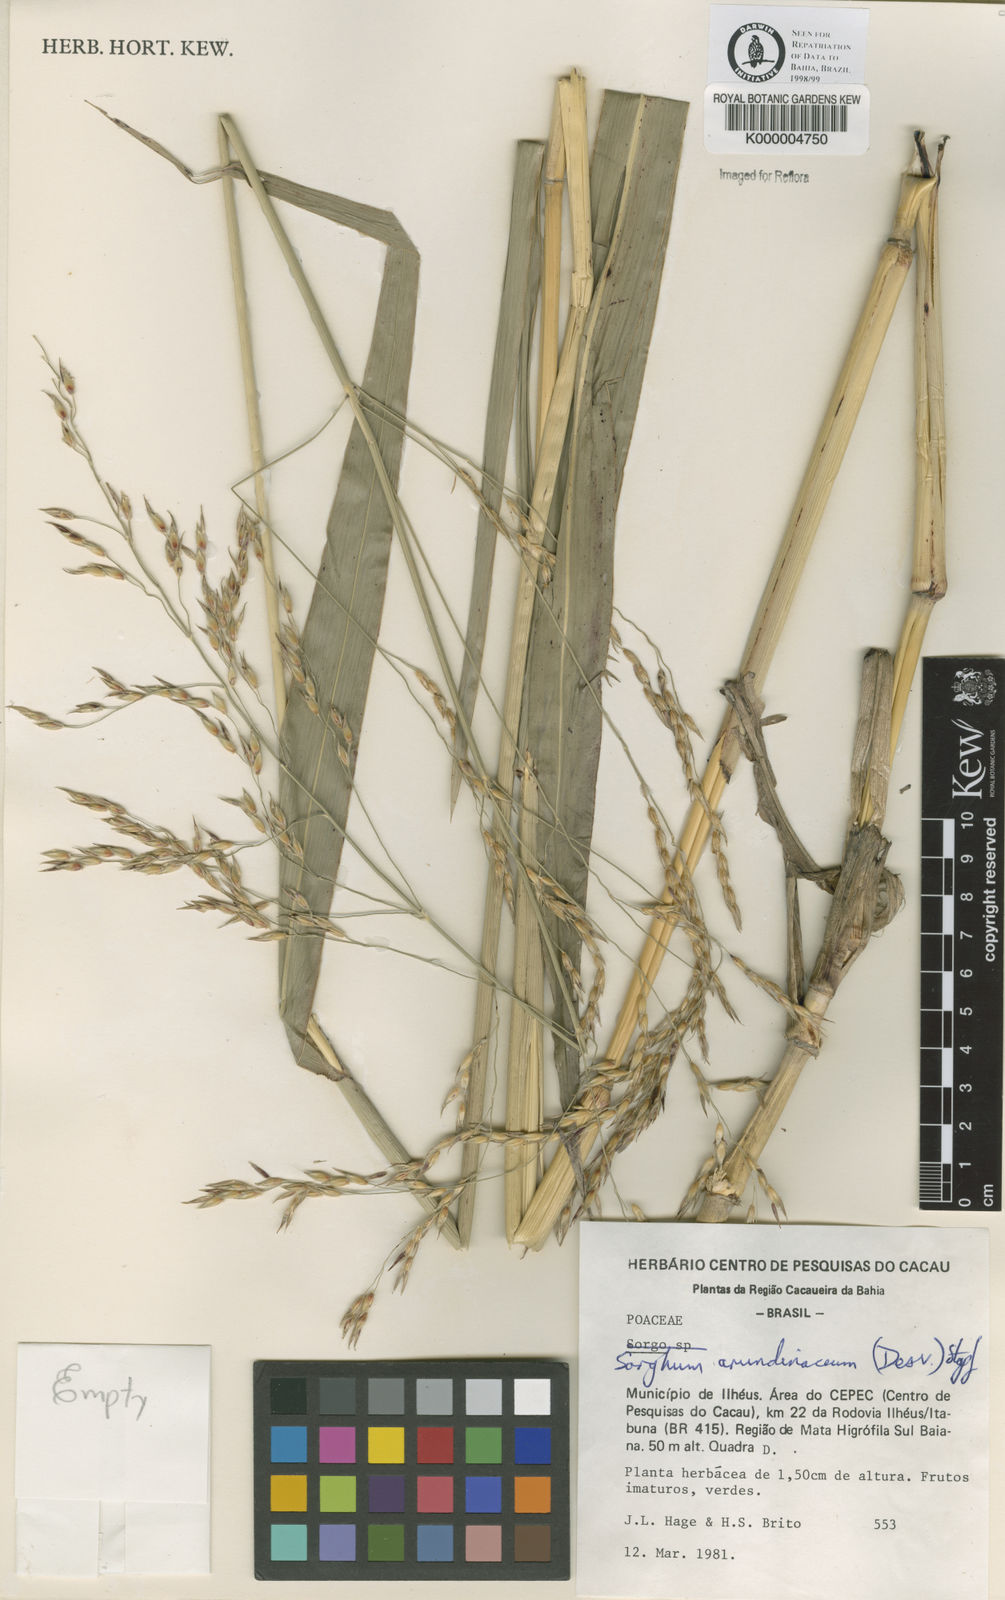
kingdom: Plantae
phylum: Tracheophyta
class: Liliopsida
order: Poales
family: Poaceae
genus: Sorghum
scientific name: Sorghum arundinaceum
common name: Sorghum
